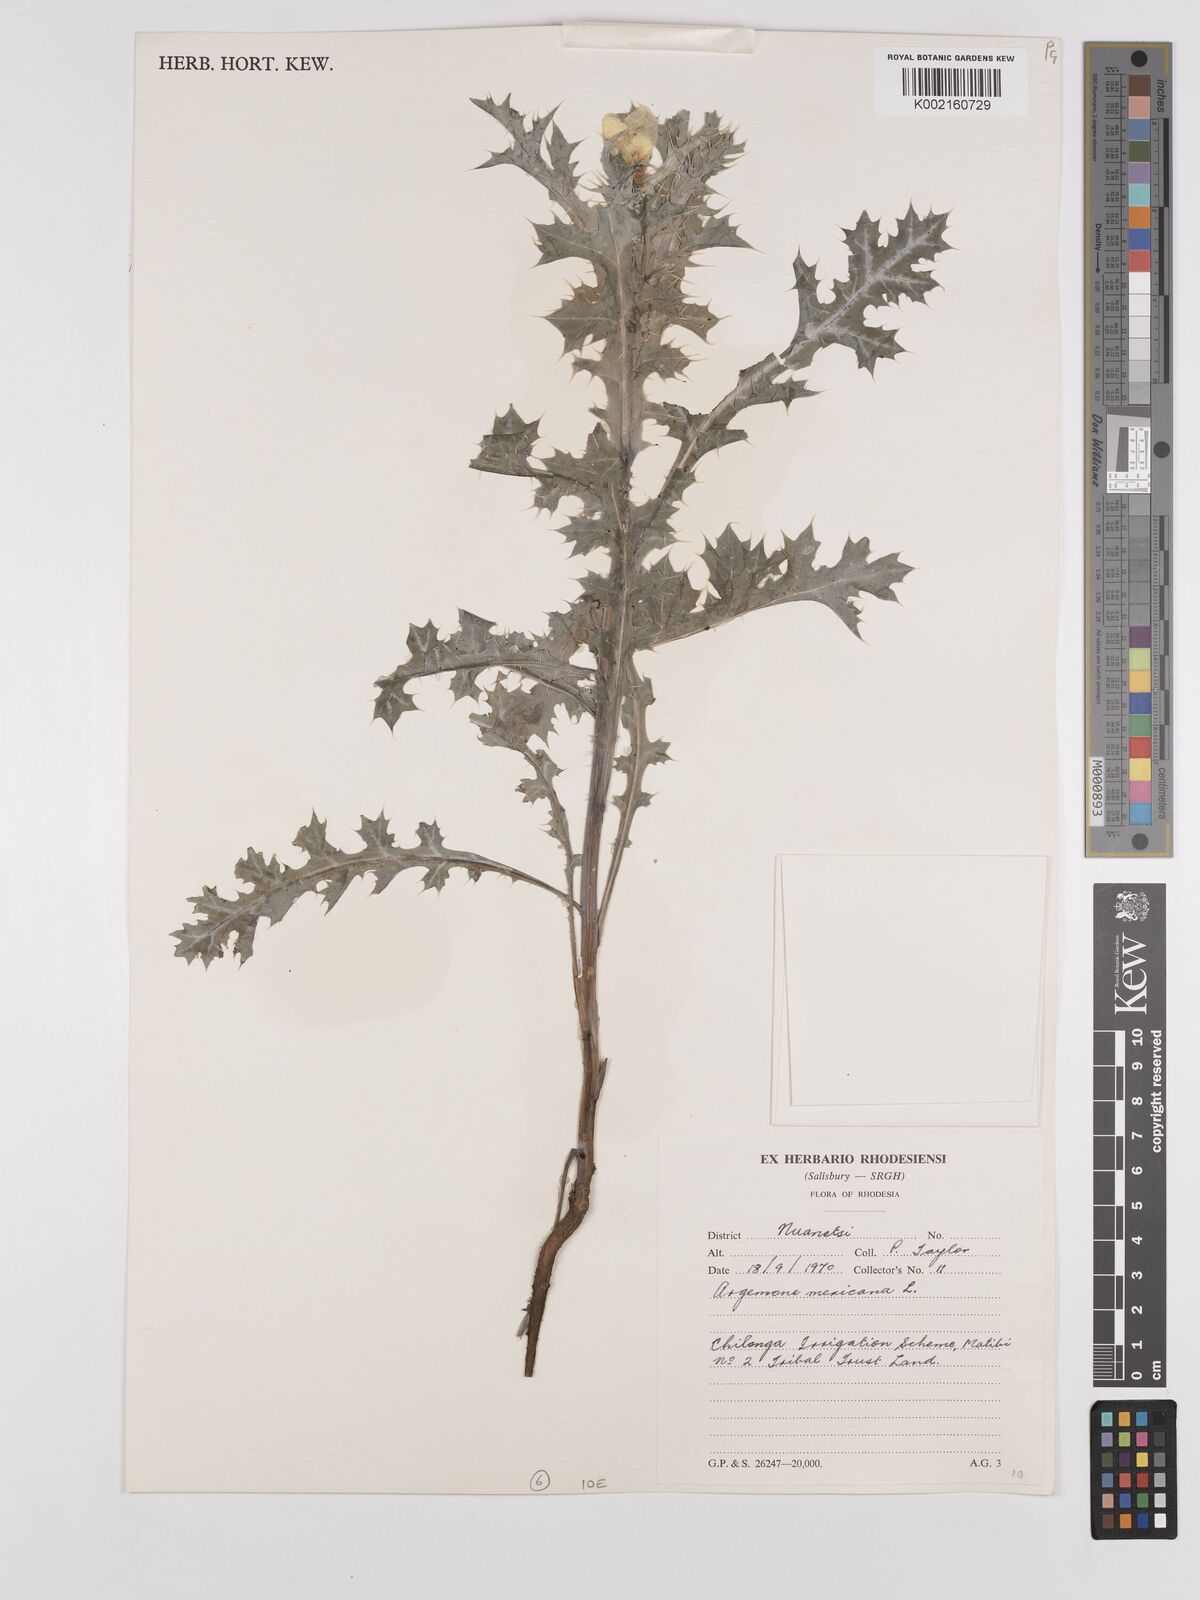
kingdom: Plantae
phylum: Tracheophyta
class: Magnoliopsida
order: Ranunculales
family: Papaveraceae
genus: Argemone
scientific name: Argemone mexicana
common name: Mexican poppy
